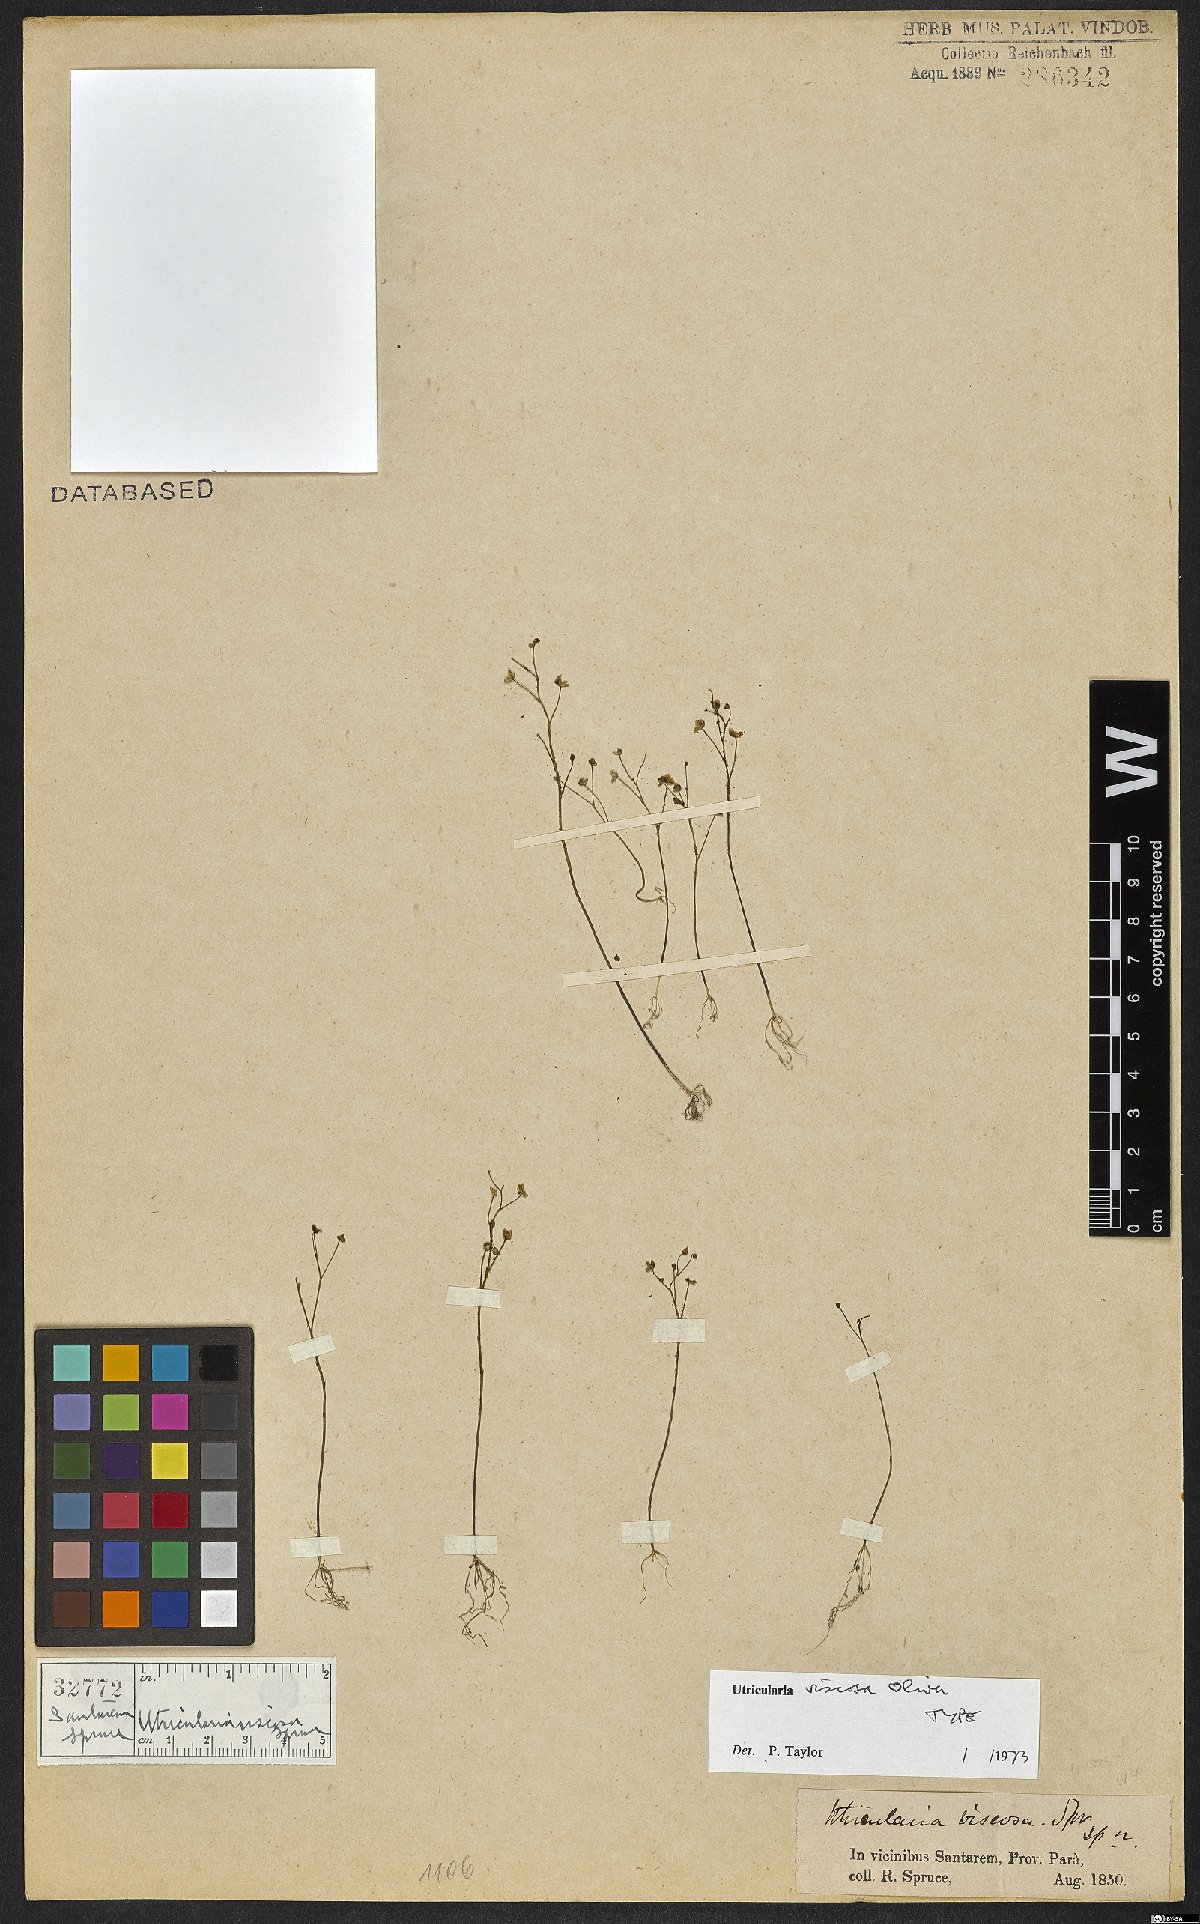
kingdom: Plantae
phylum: Tracheophyta
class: Magnoliopsida
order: Lamiales
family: Lentibulariaceae
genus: Utricularia
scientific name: Utricularia viscosa
